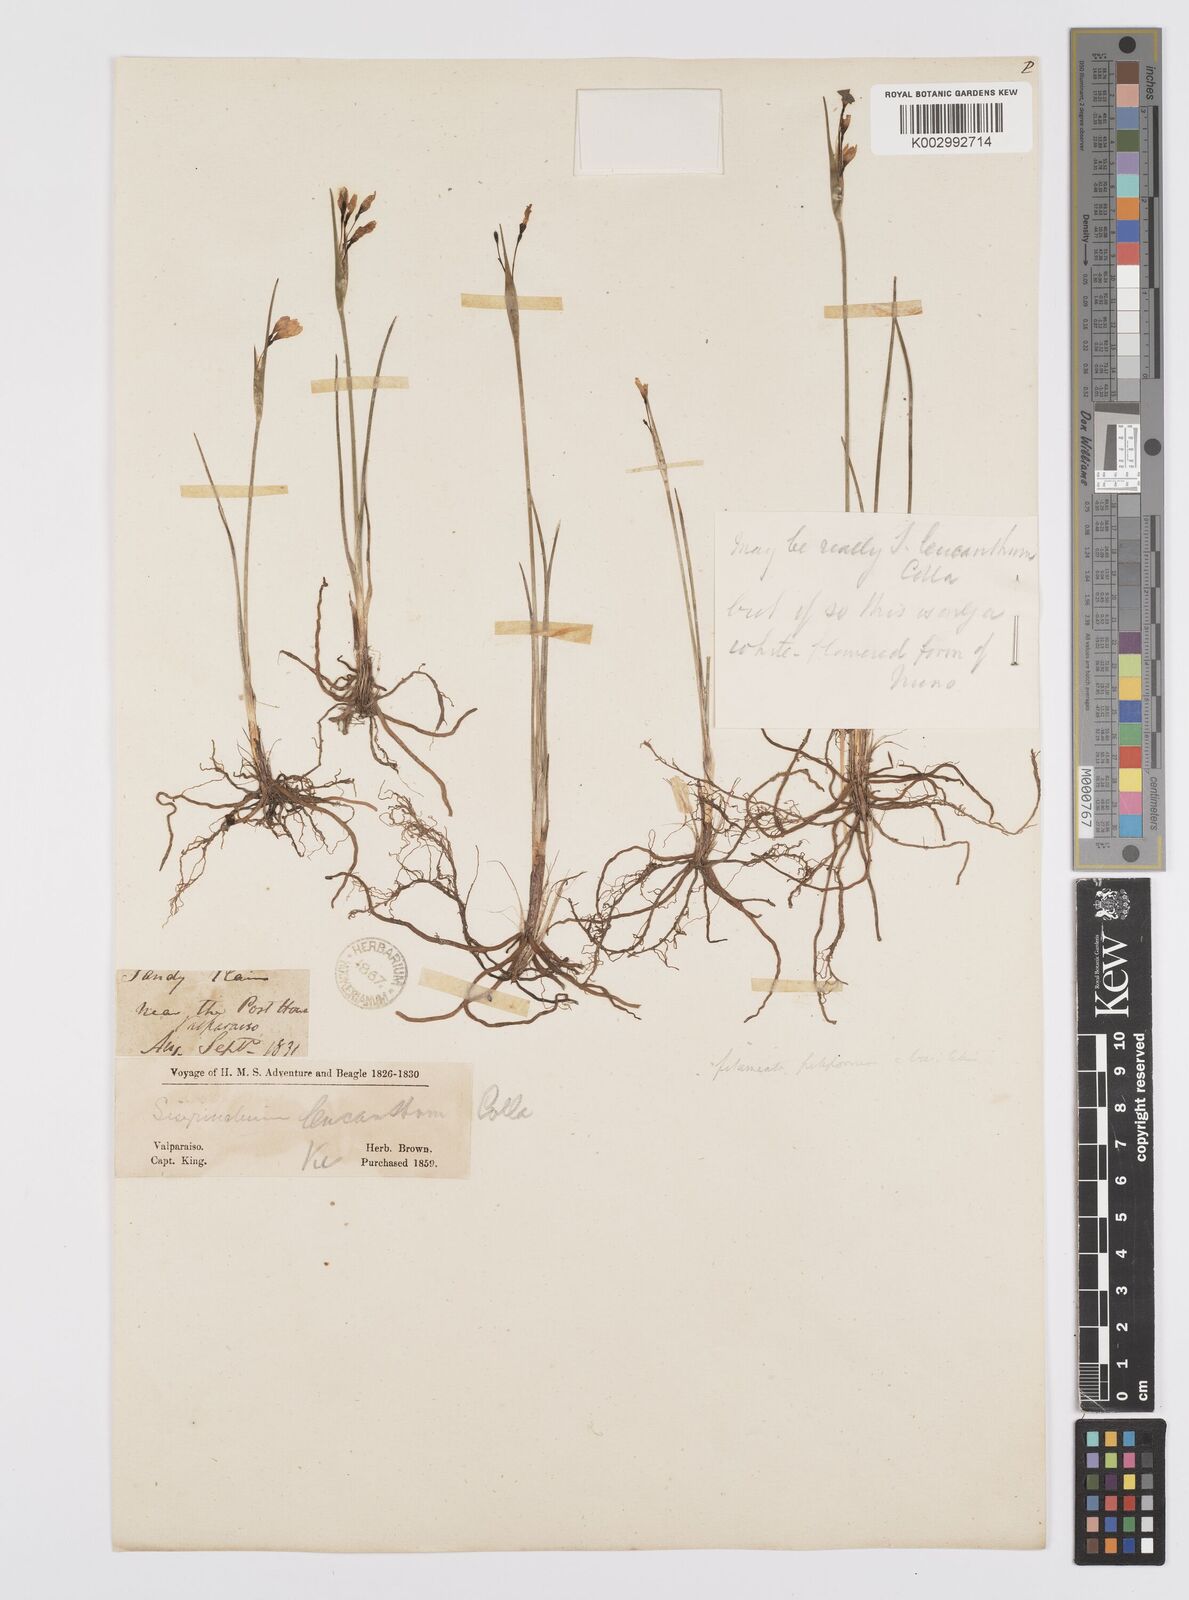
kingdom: Plantae
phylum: Tracheophyta
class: Liliopsida
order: Asparagales
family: Iridaceae
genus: Olsynium
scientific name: Olsynium scirpoideum
